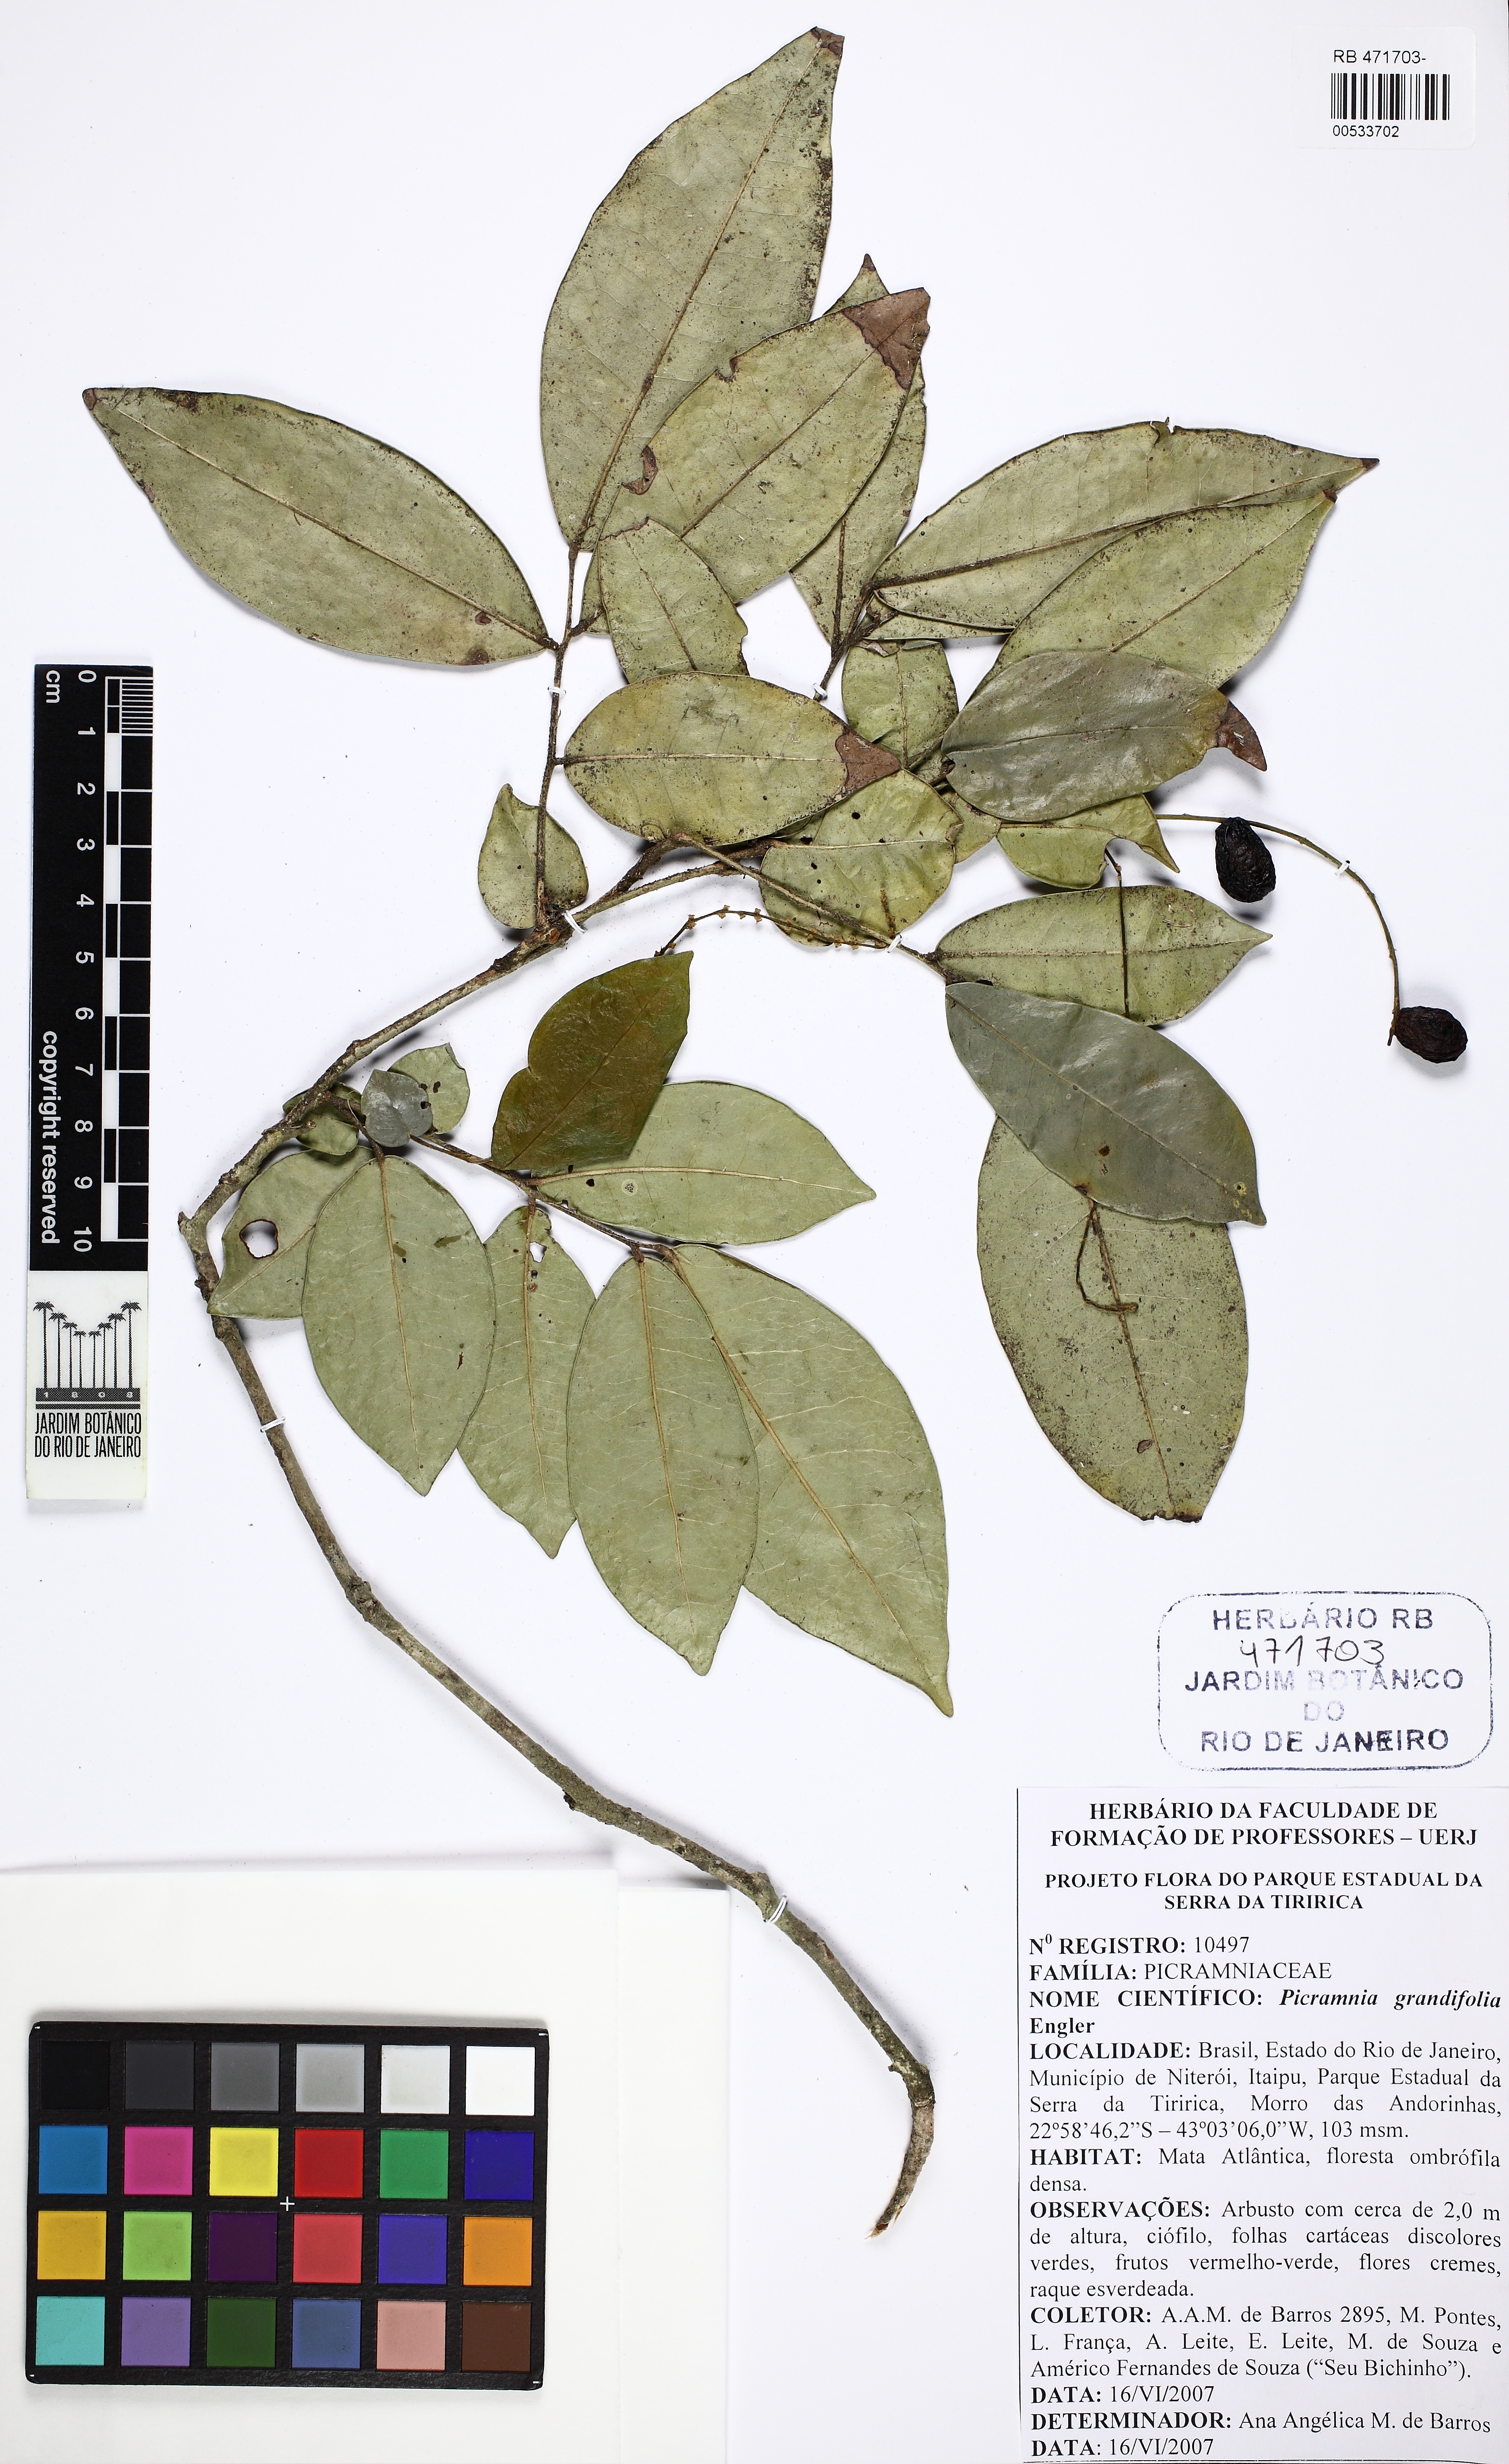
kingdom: Plantae
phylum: Tracheophyta
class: Magnoliopsida
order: Picramniales
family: Picramniaceae
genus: Picramnia
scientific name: Picramnia grandifolia
